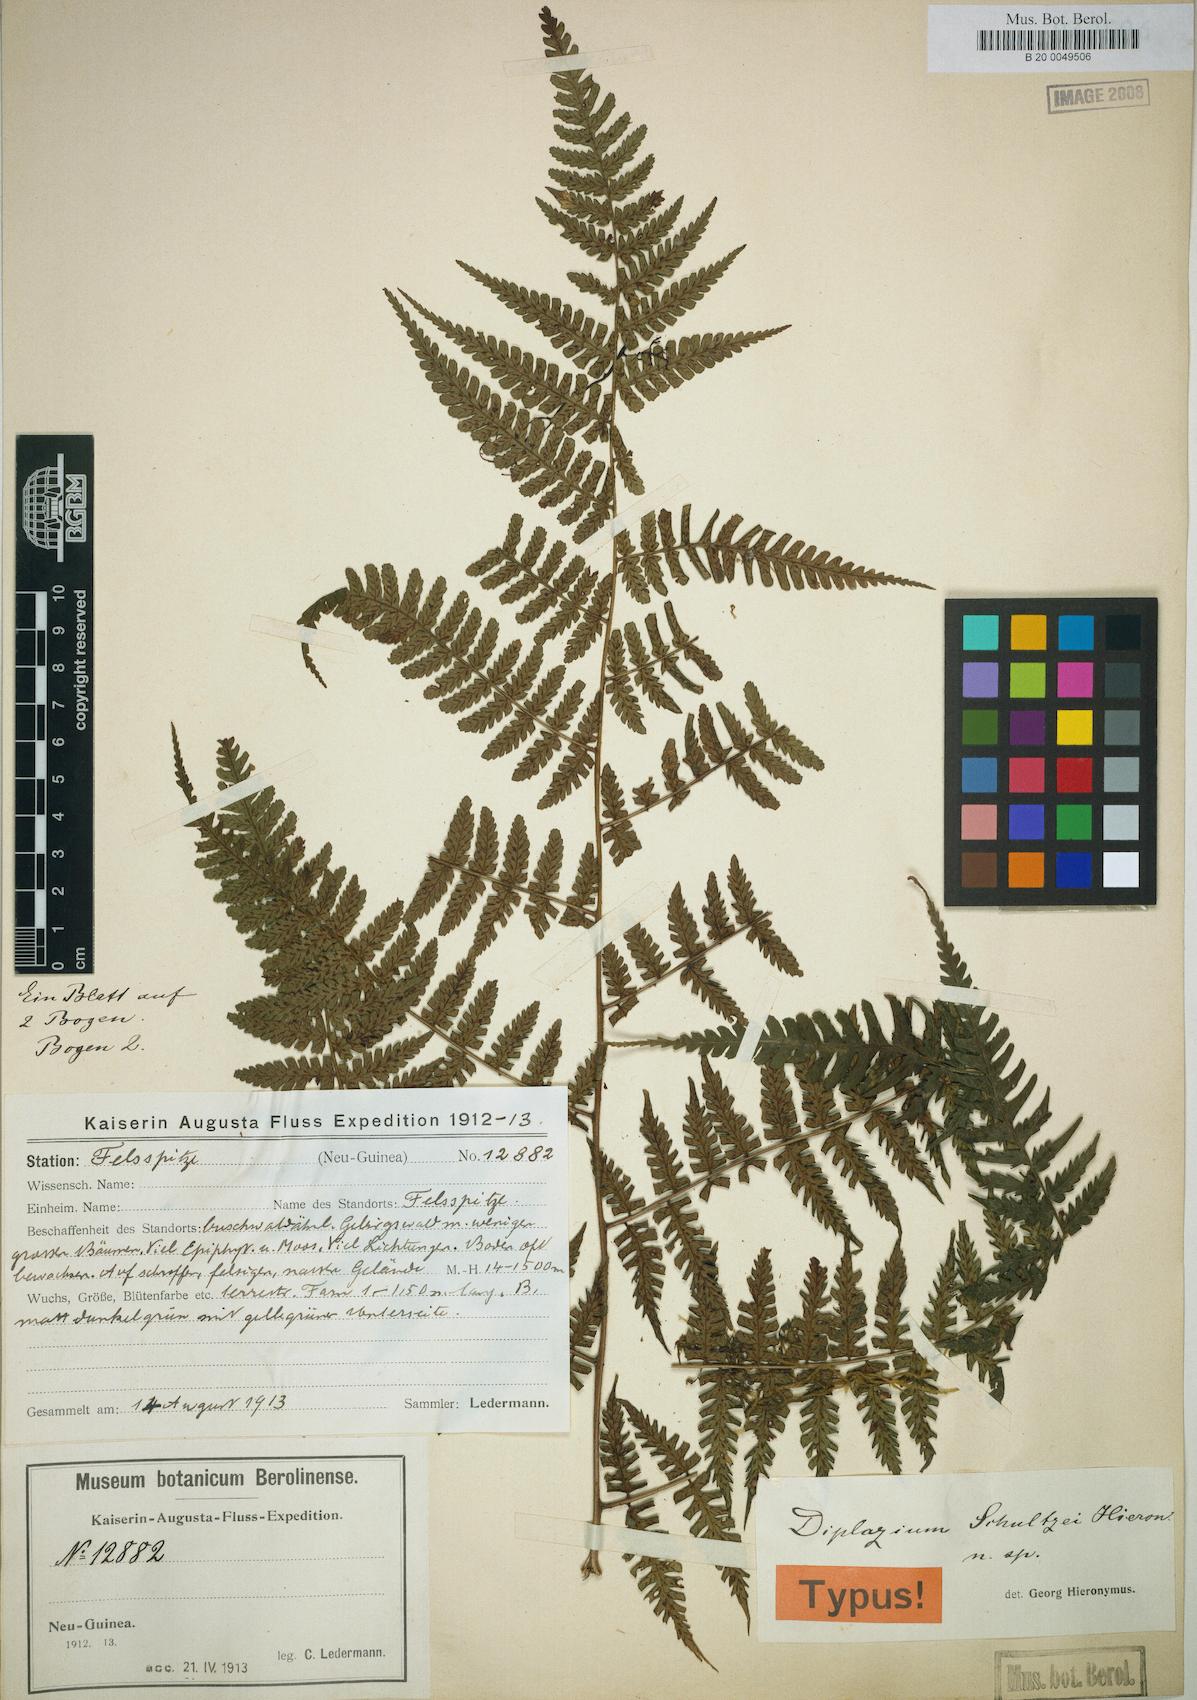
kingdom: Plantae
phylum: Tracheophyta
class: Polypodiopsida
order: Polypodiales
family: Athyriaceae
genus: Diplazium
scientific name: Diplazium schultzei
